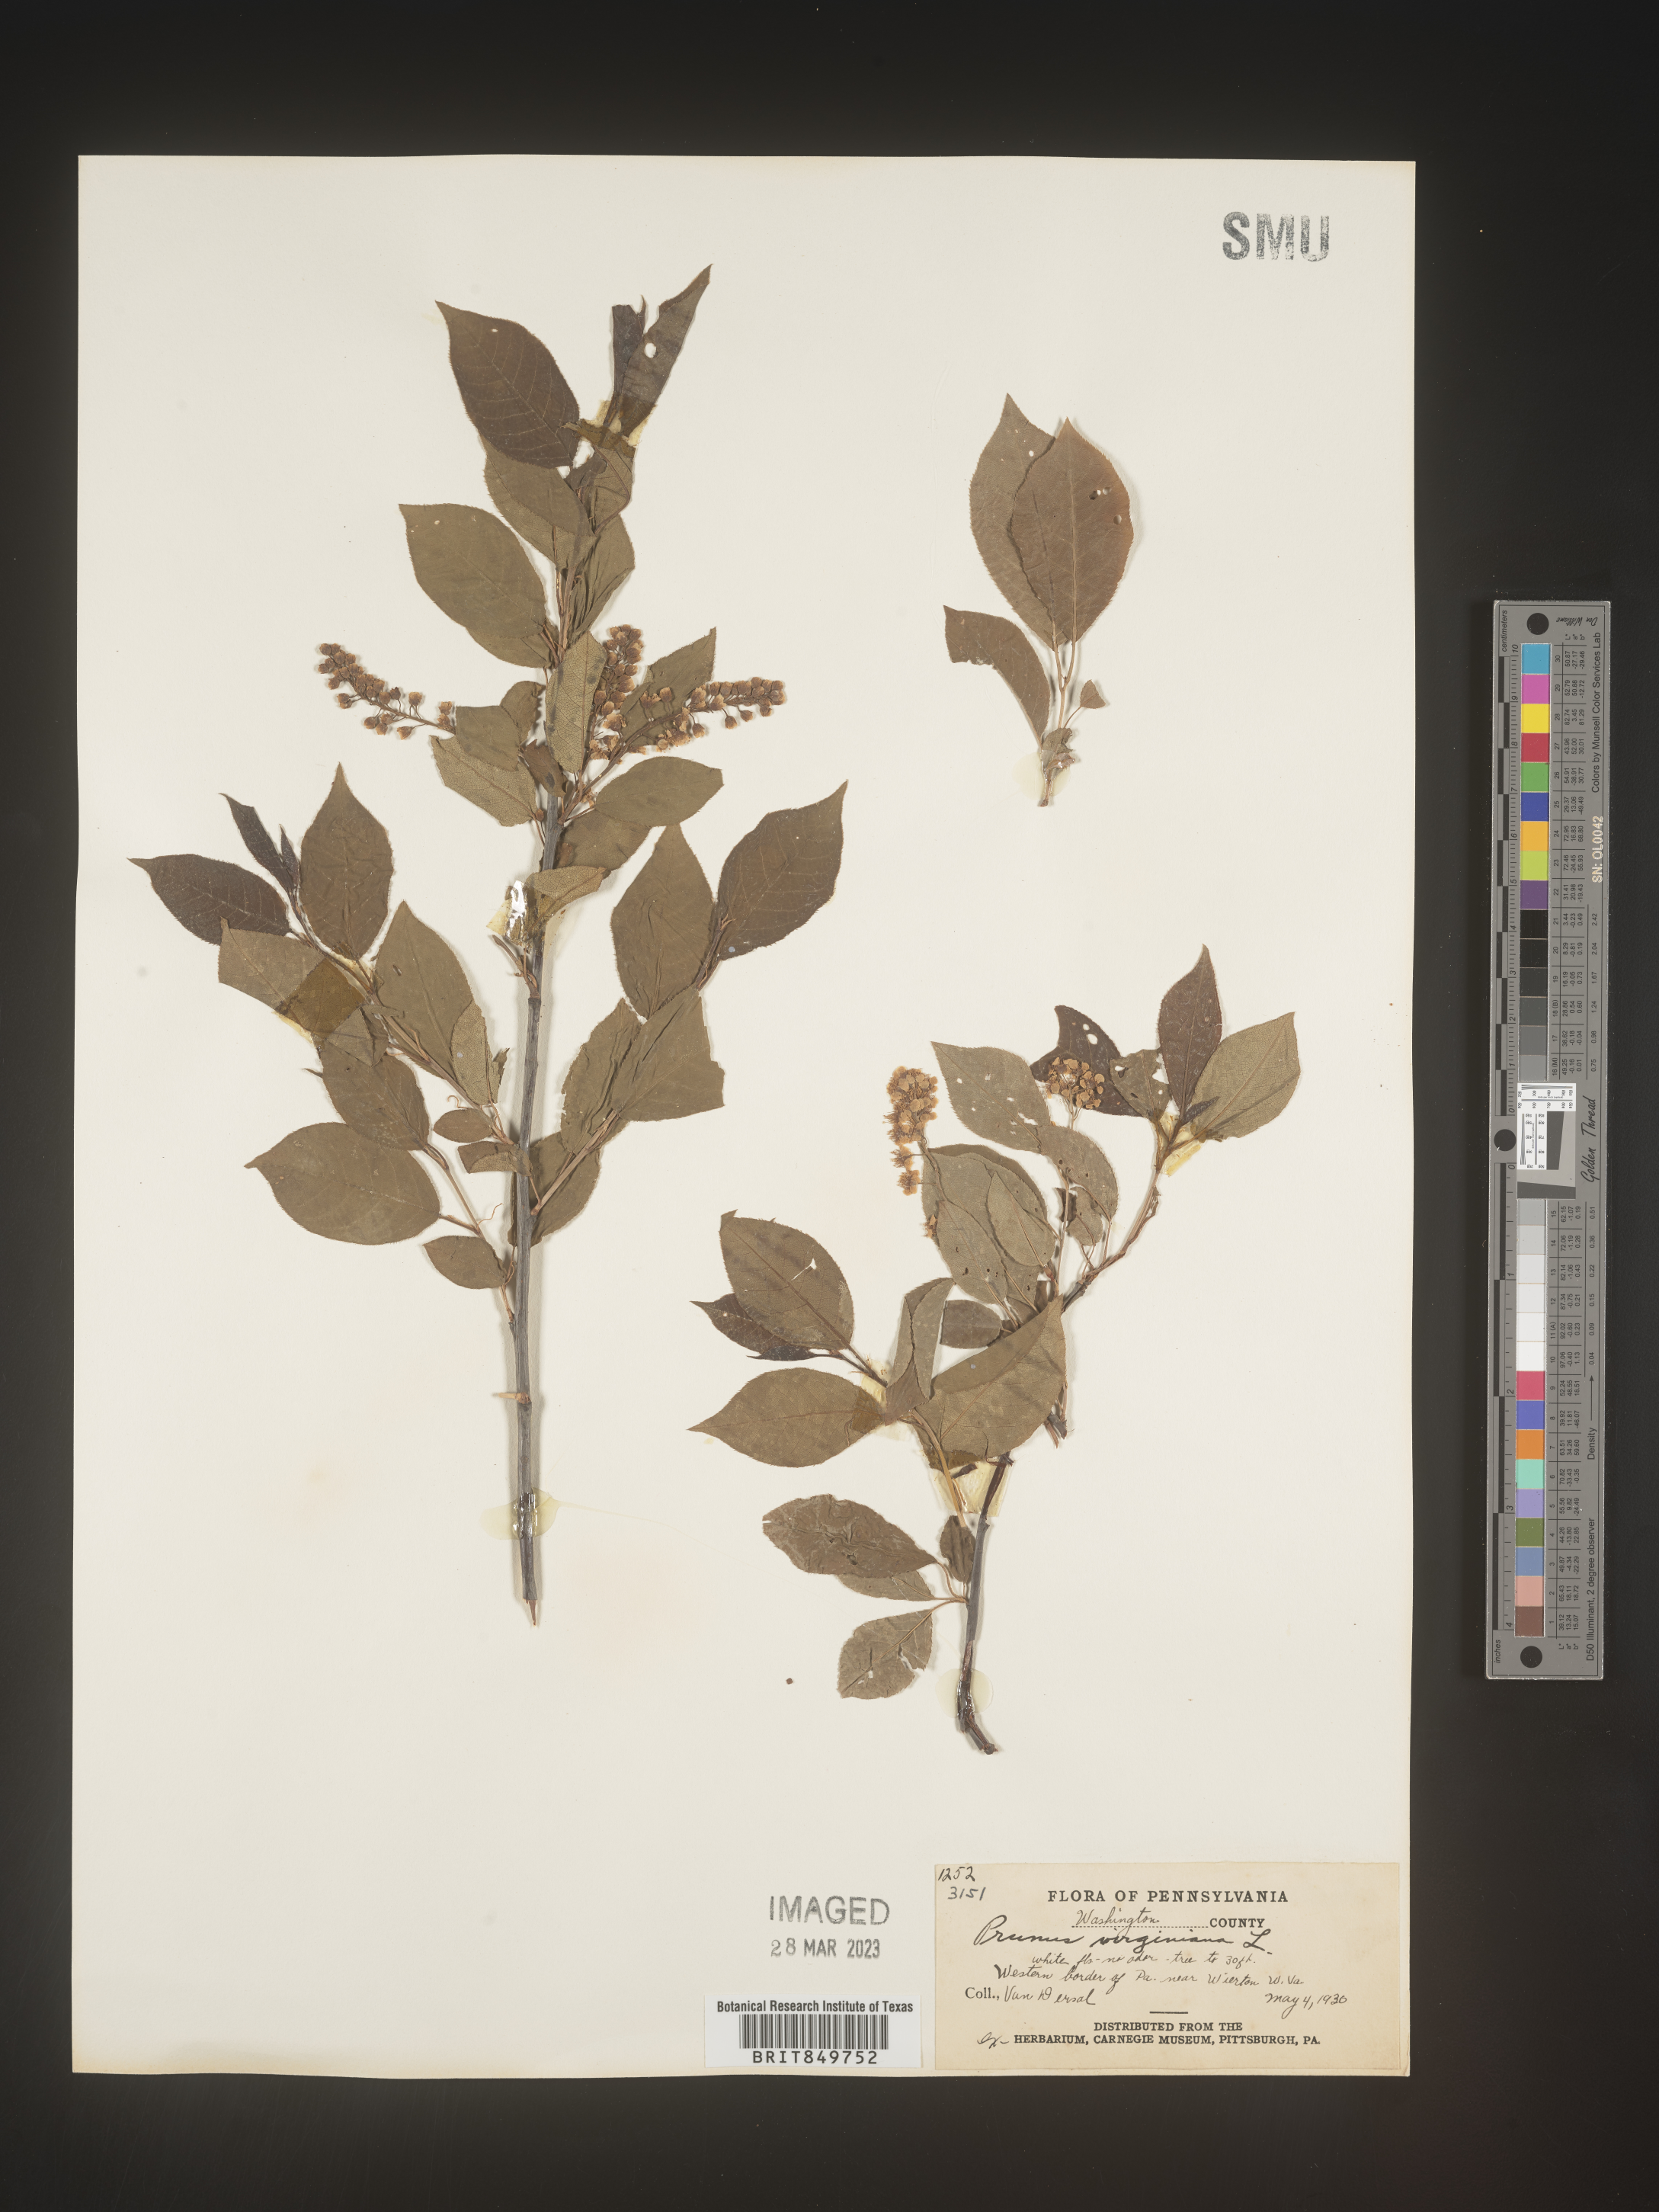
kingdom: Plantae
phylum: Tracheophyta
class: Magnoliopsida
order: Rosales
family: Rosaceae
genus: Prunus
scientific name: Prunus virginiana
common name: Chokecherry
